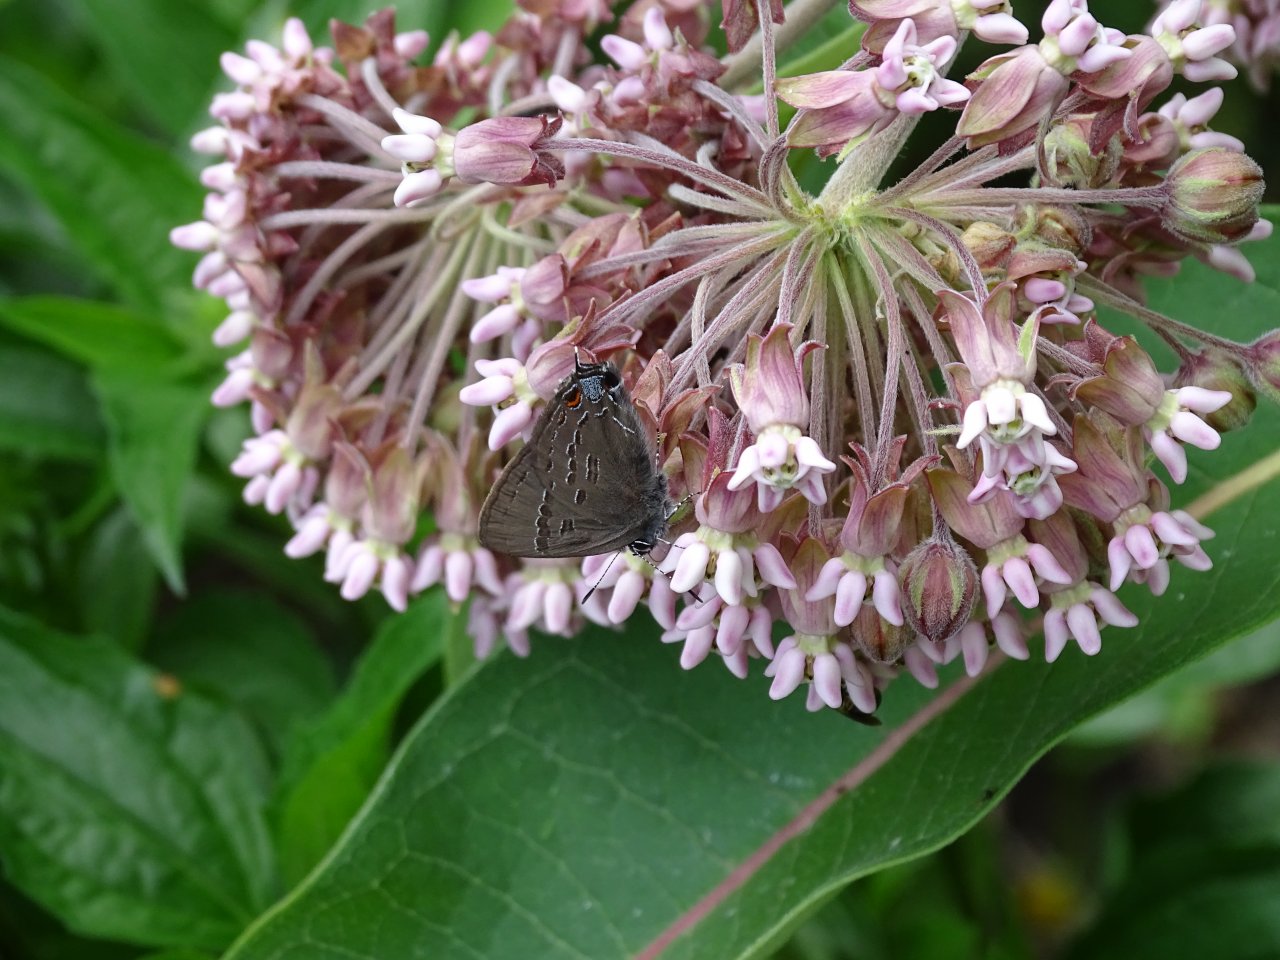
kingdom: Animalia
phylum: Arthropoda
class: Insecta
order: Lepidoptera
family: Lycaenidae
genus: Satyrium
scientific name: Satyrium calanus
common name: Banded Hairstreak
